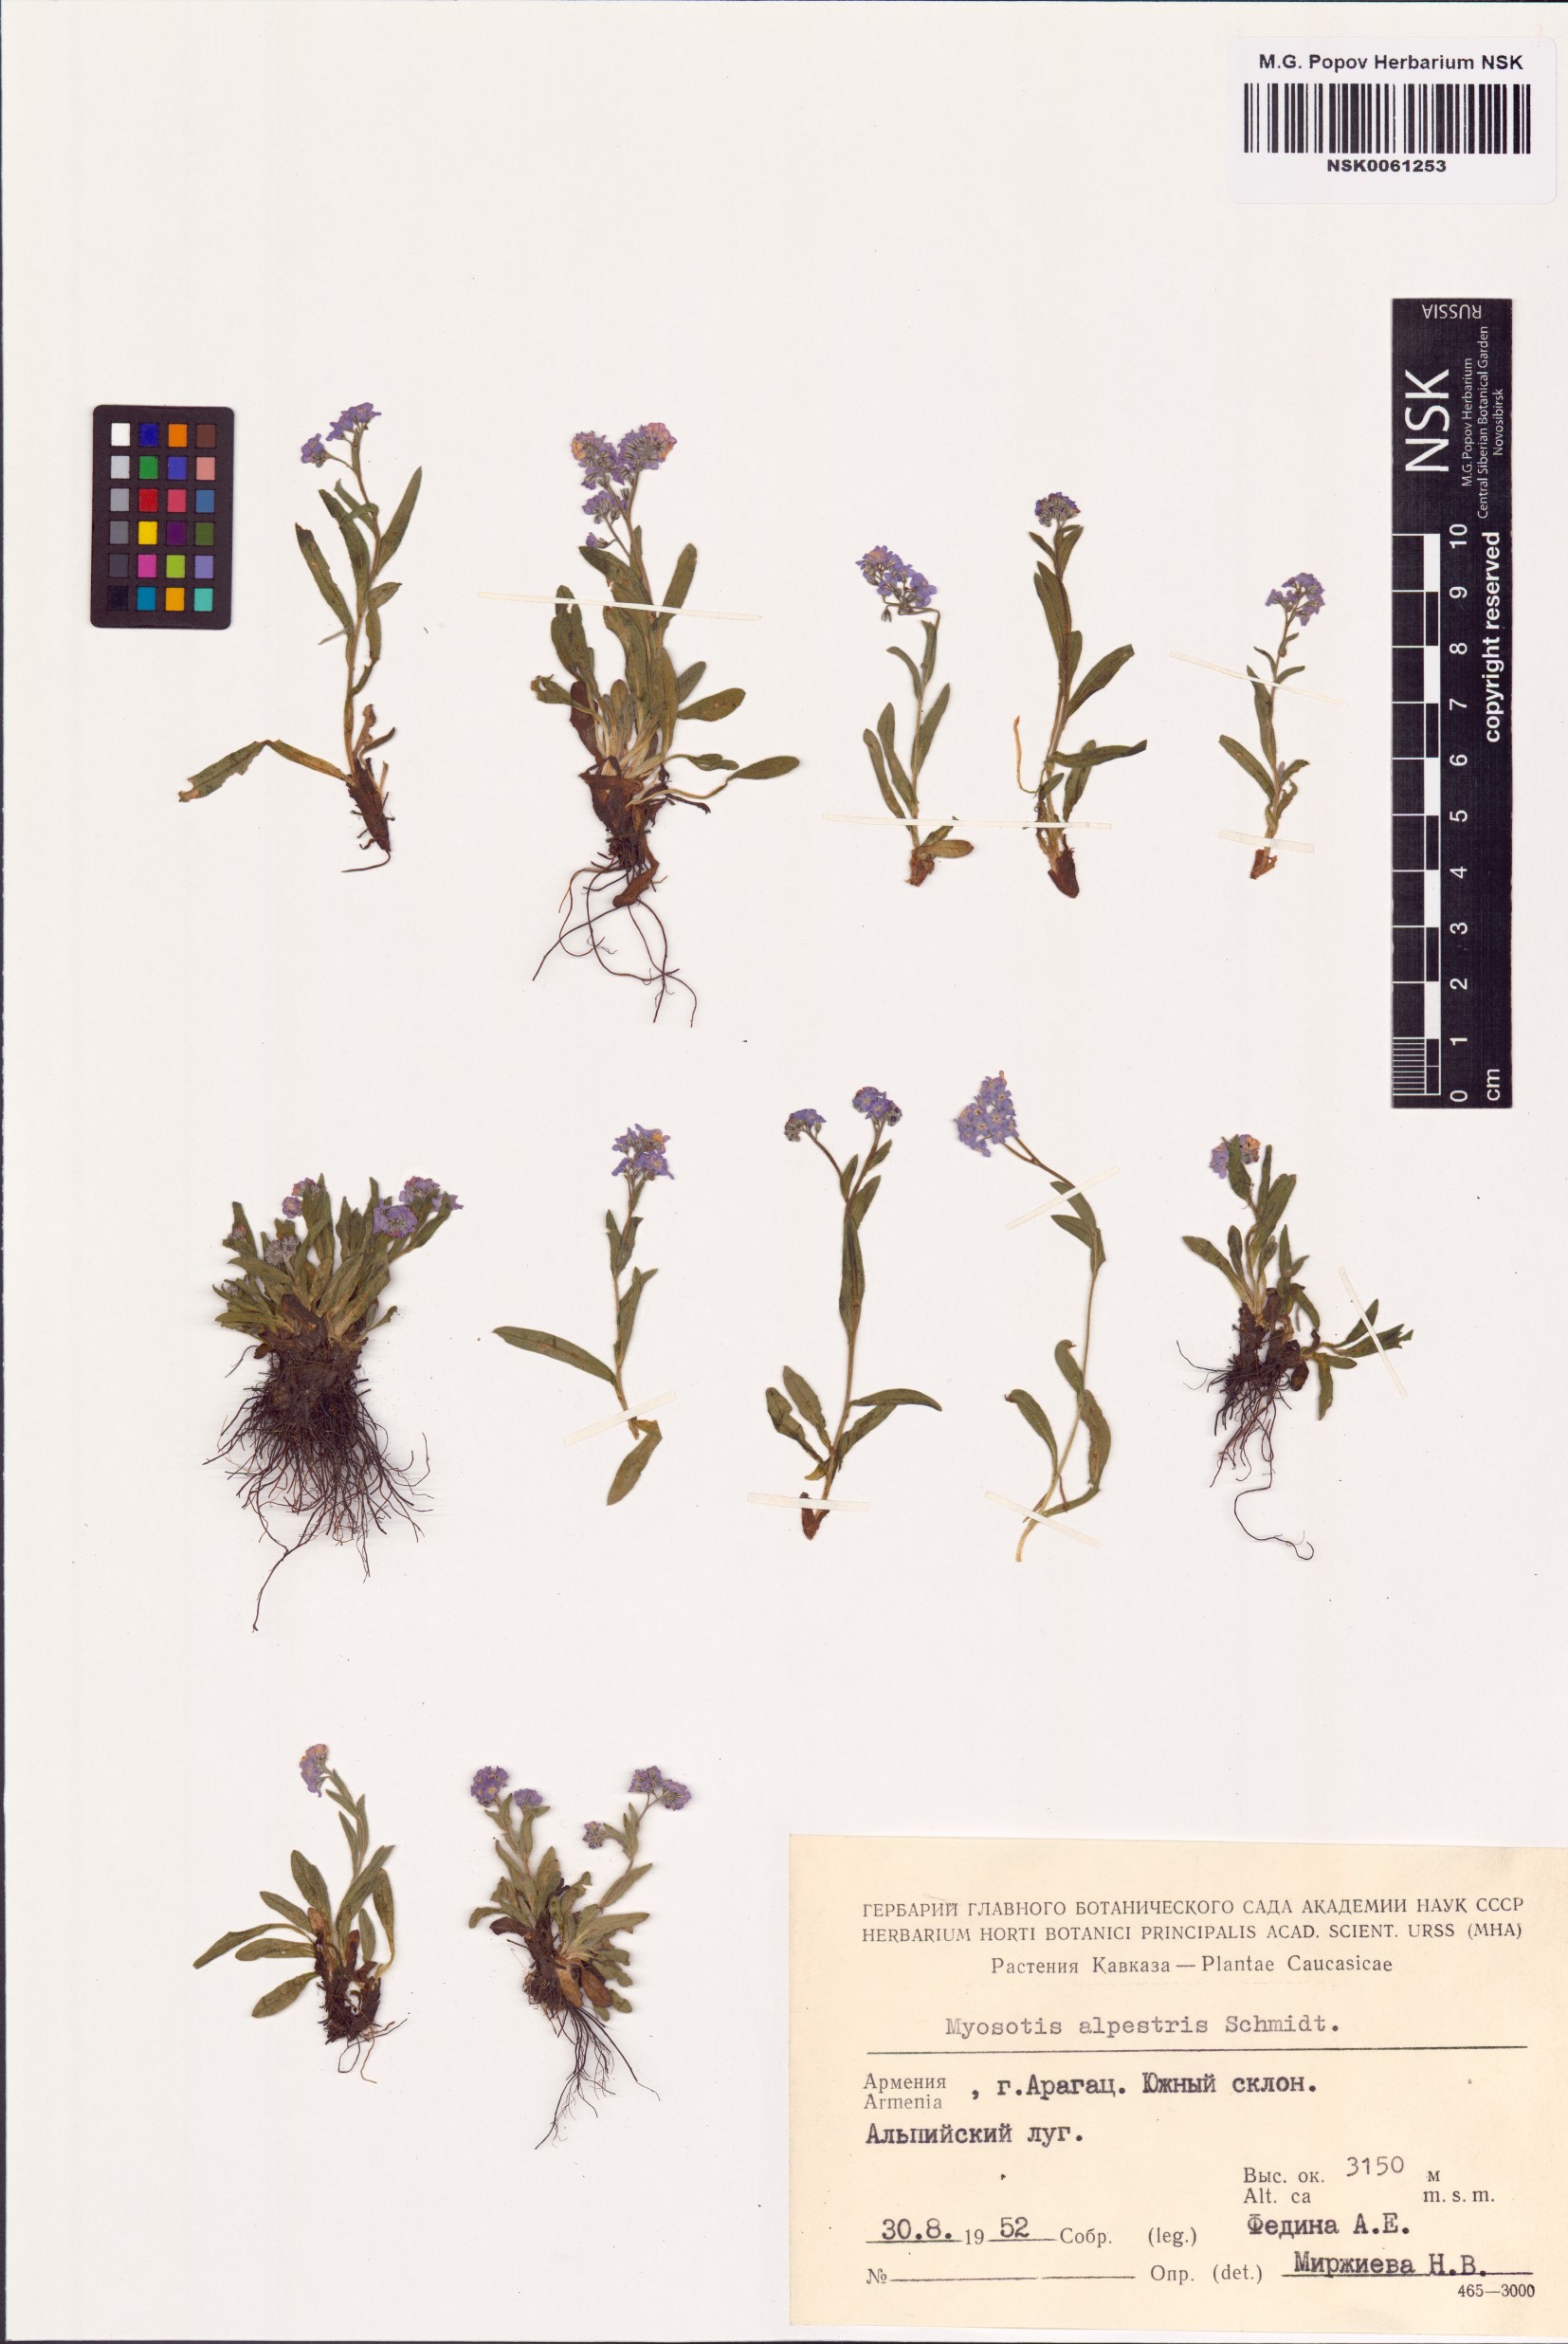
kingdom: Plantae
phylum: Tracheophyta
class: Magnoliopsida
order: Boraginales
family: Boraginaceae
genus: Myosotis
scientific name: Myosotis alpestris
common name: Alpine forget-me-not
